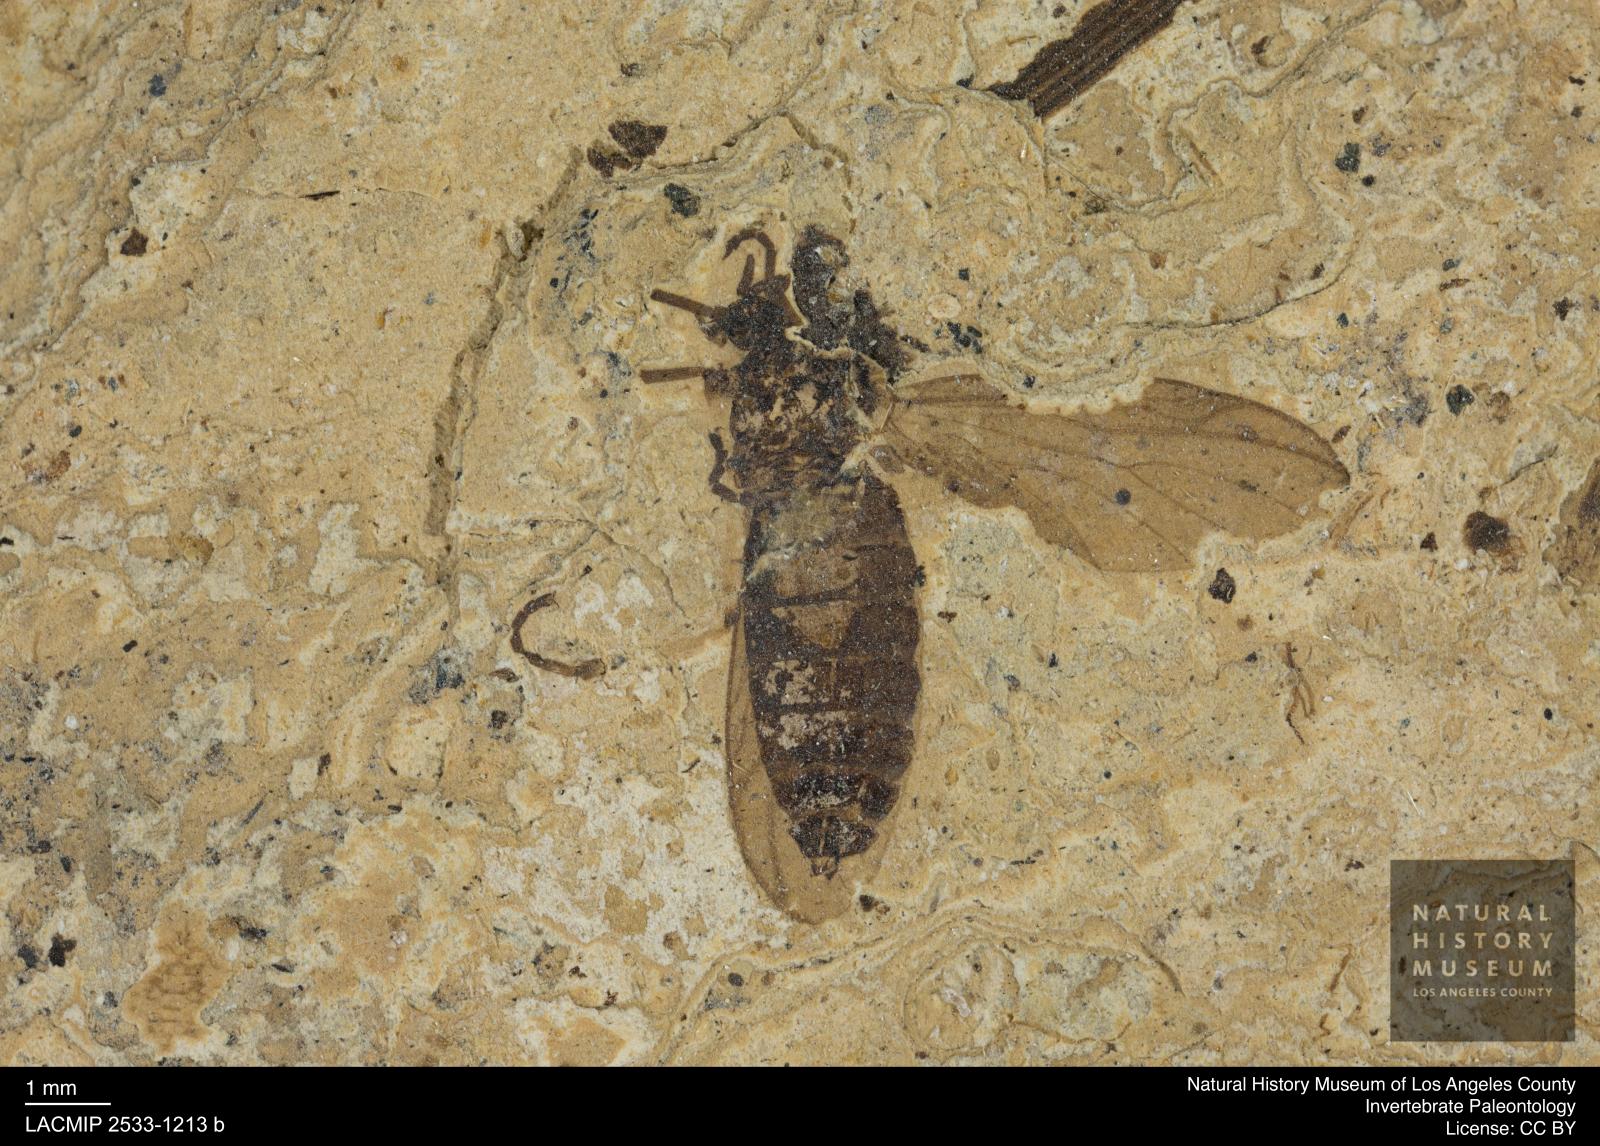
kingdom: Animalia
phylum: Arthropoda
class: Insecta
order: Diptera
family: Bibionidae
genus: Plecia
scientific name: Plecia hypogaea
